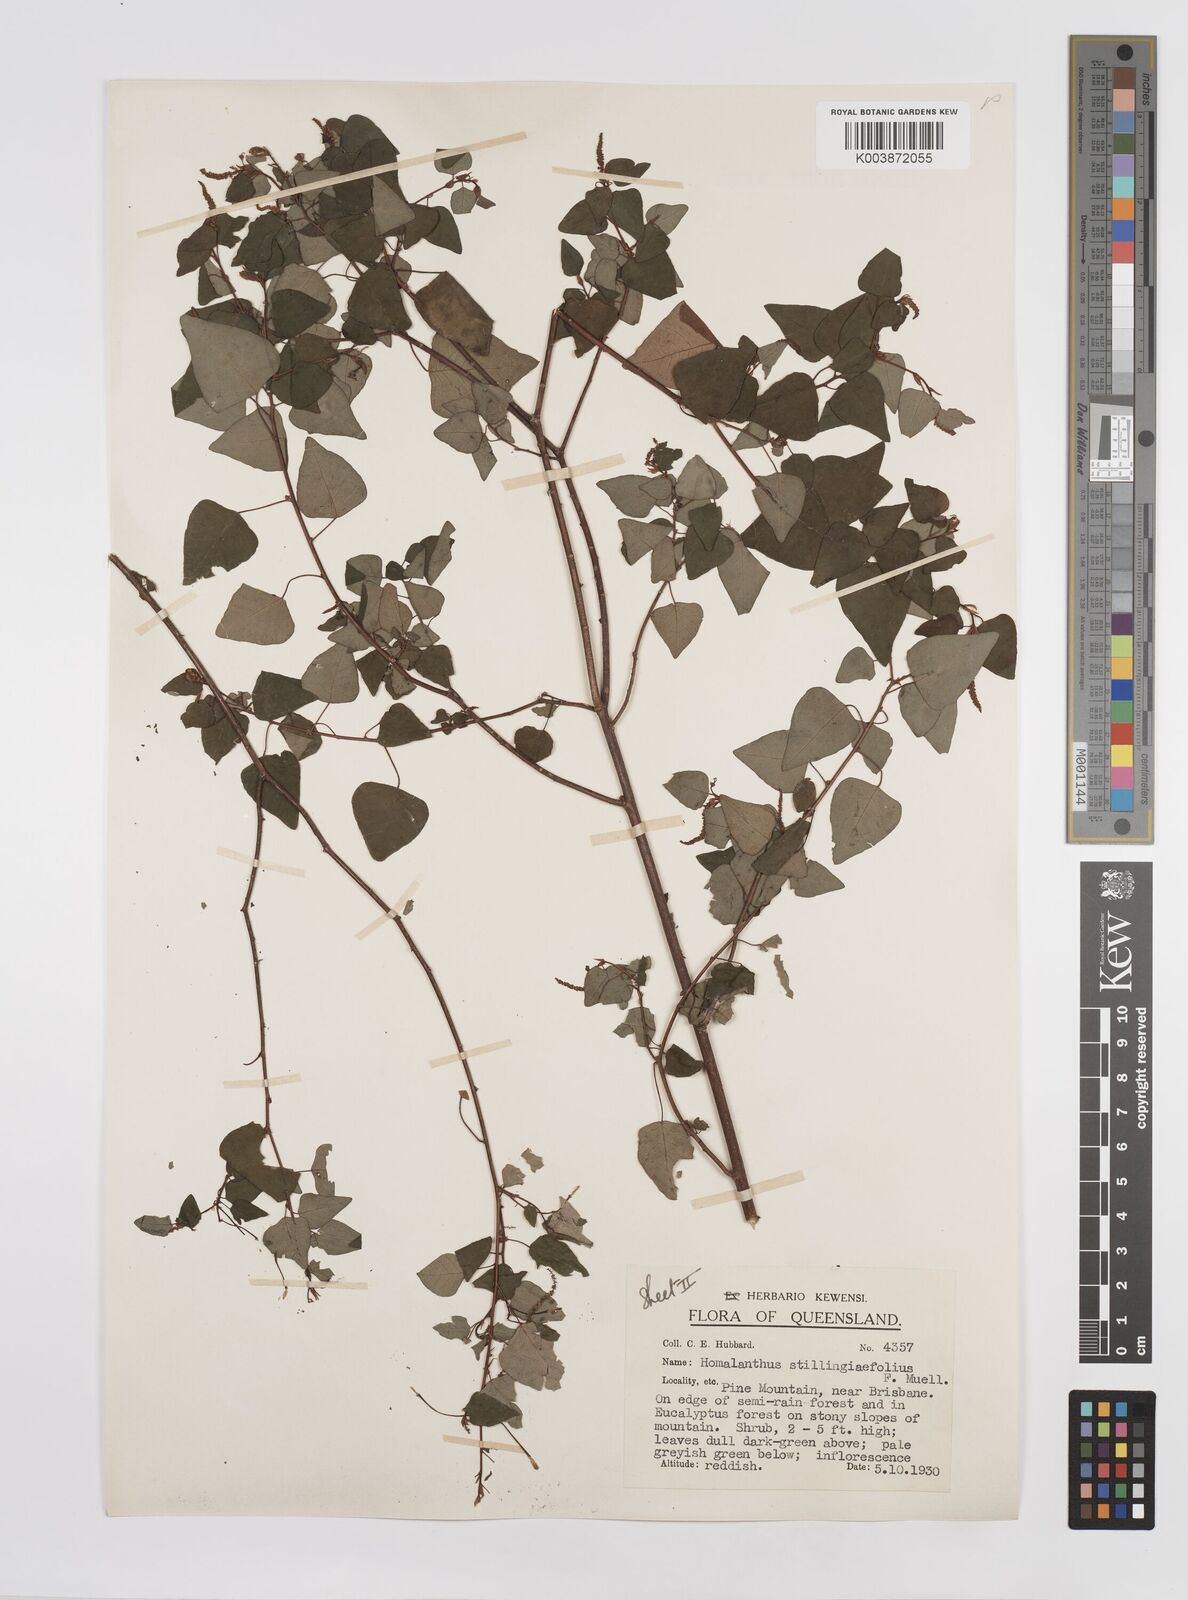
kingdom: Plantae
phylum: Tracheophyta
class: Magnoliopsida
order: Malpighiales
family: Euphorbiaceae
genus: Homalanthus
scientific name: Homalanthus stillingifolius
